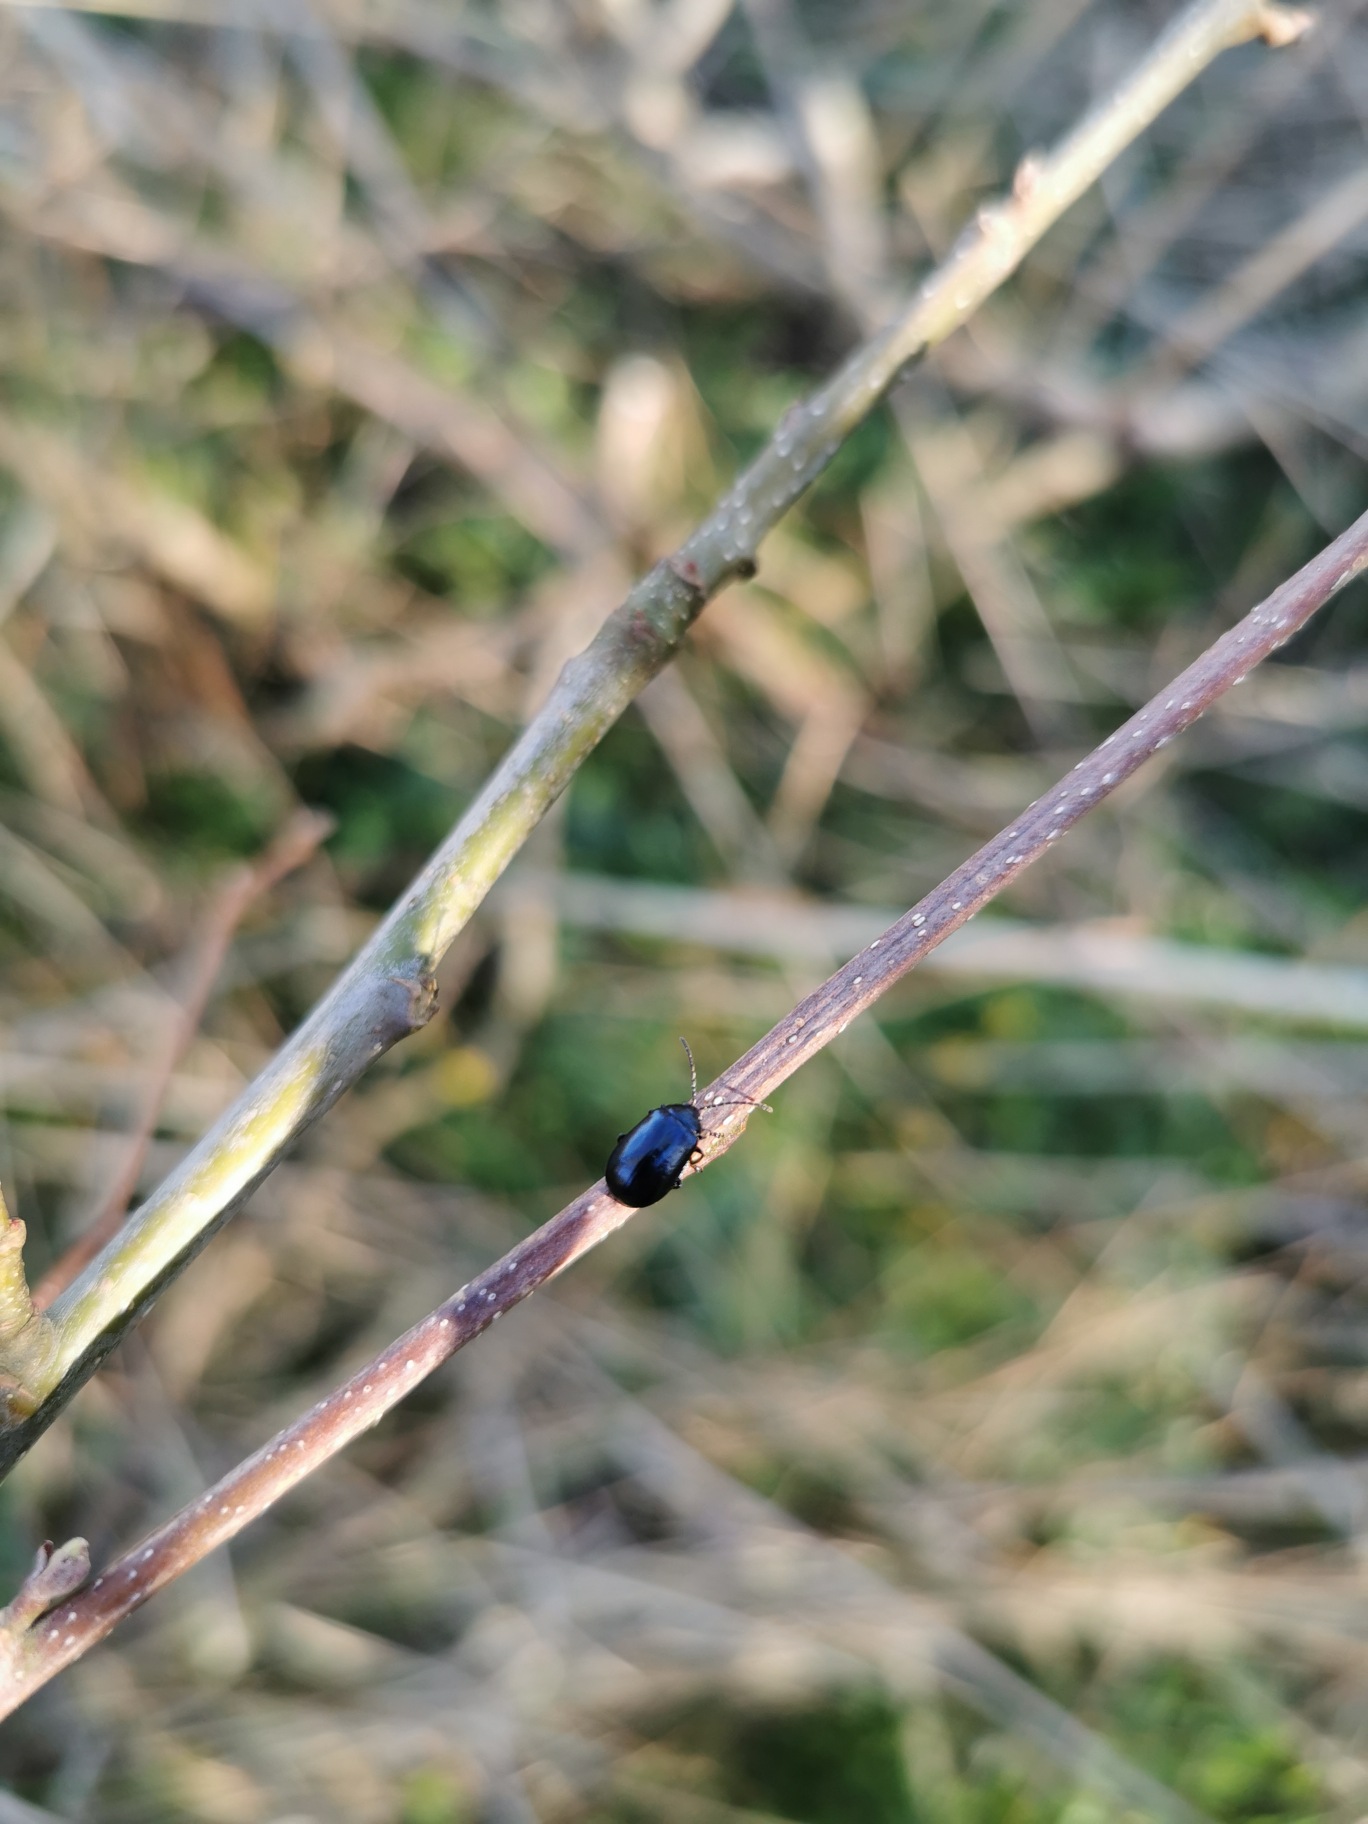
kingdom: Animalia
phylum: Arthropoda
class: Insecta
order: Coleoptera
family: Chrysomelidae
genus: Agelastica
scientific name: Agelastica alni
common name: Ellebladbille
